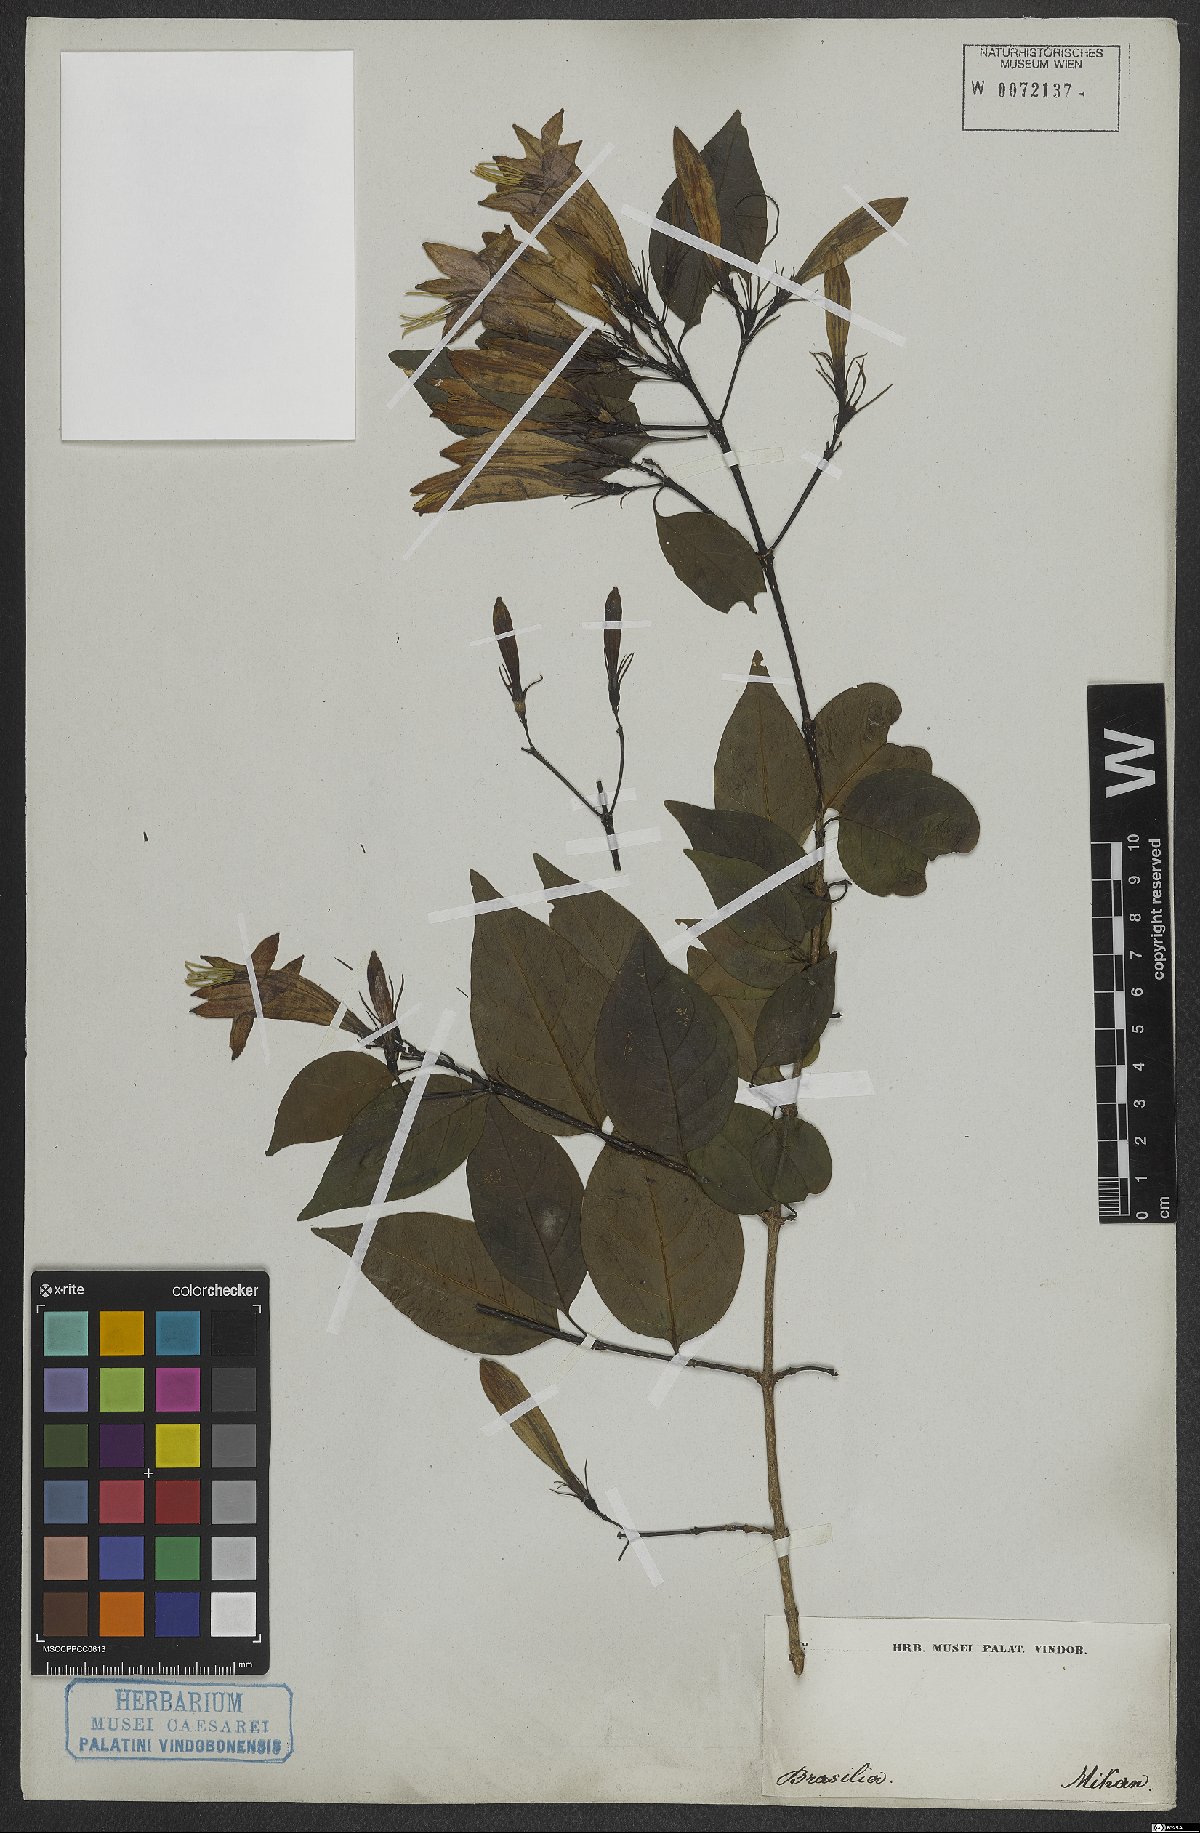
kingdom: Plantae
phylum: Tracheophyta
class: Magnoliopsida
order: Gentianales
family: Rubiaceae
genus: Coutarea
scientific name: Coutarea
